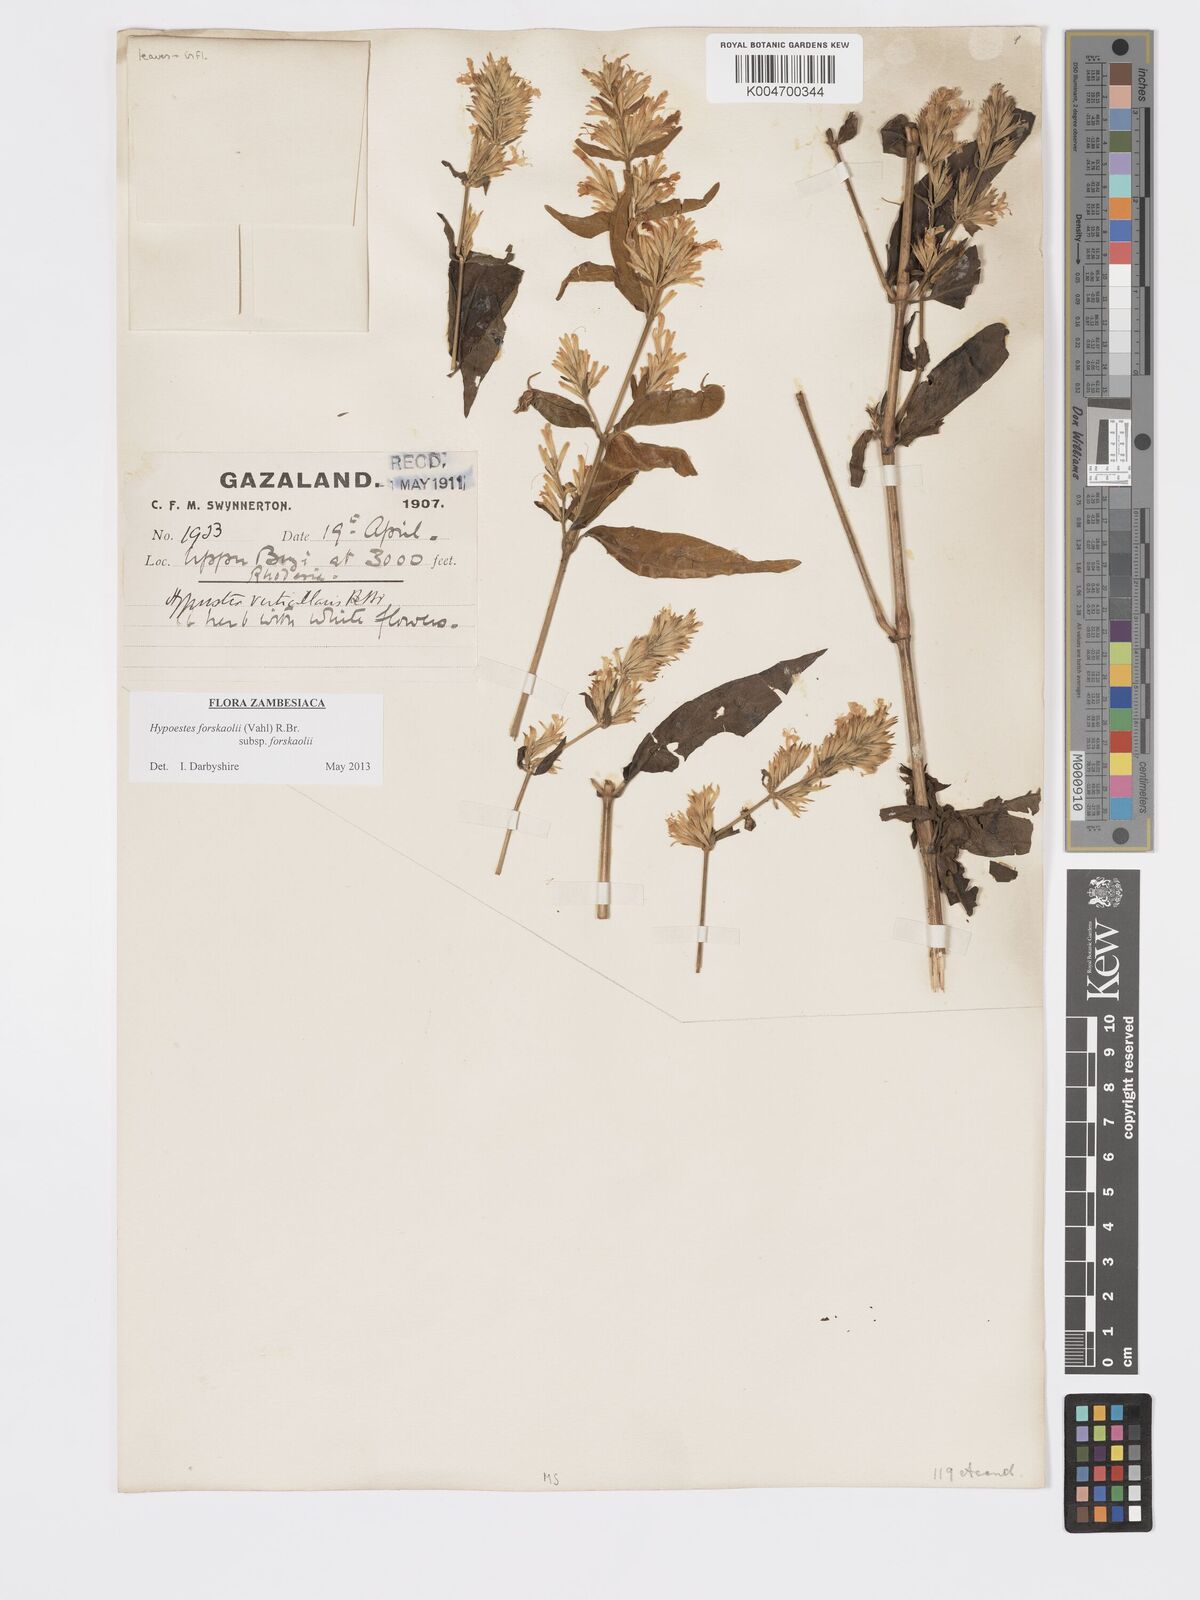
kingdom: Plantae
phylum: Tracheophyta
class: Magnoliopsida
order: Lamiales
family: Acanthaceae
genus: Hypoestes
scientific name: Hypoestes forskaolii
